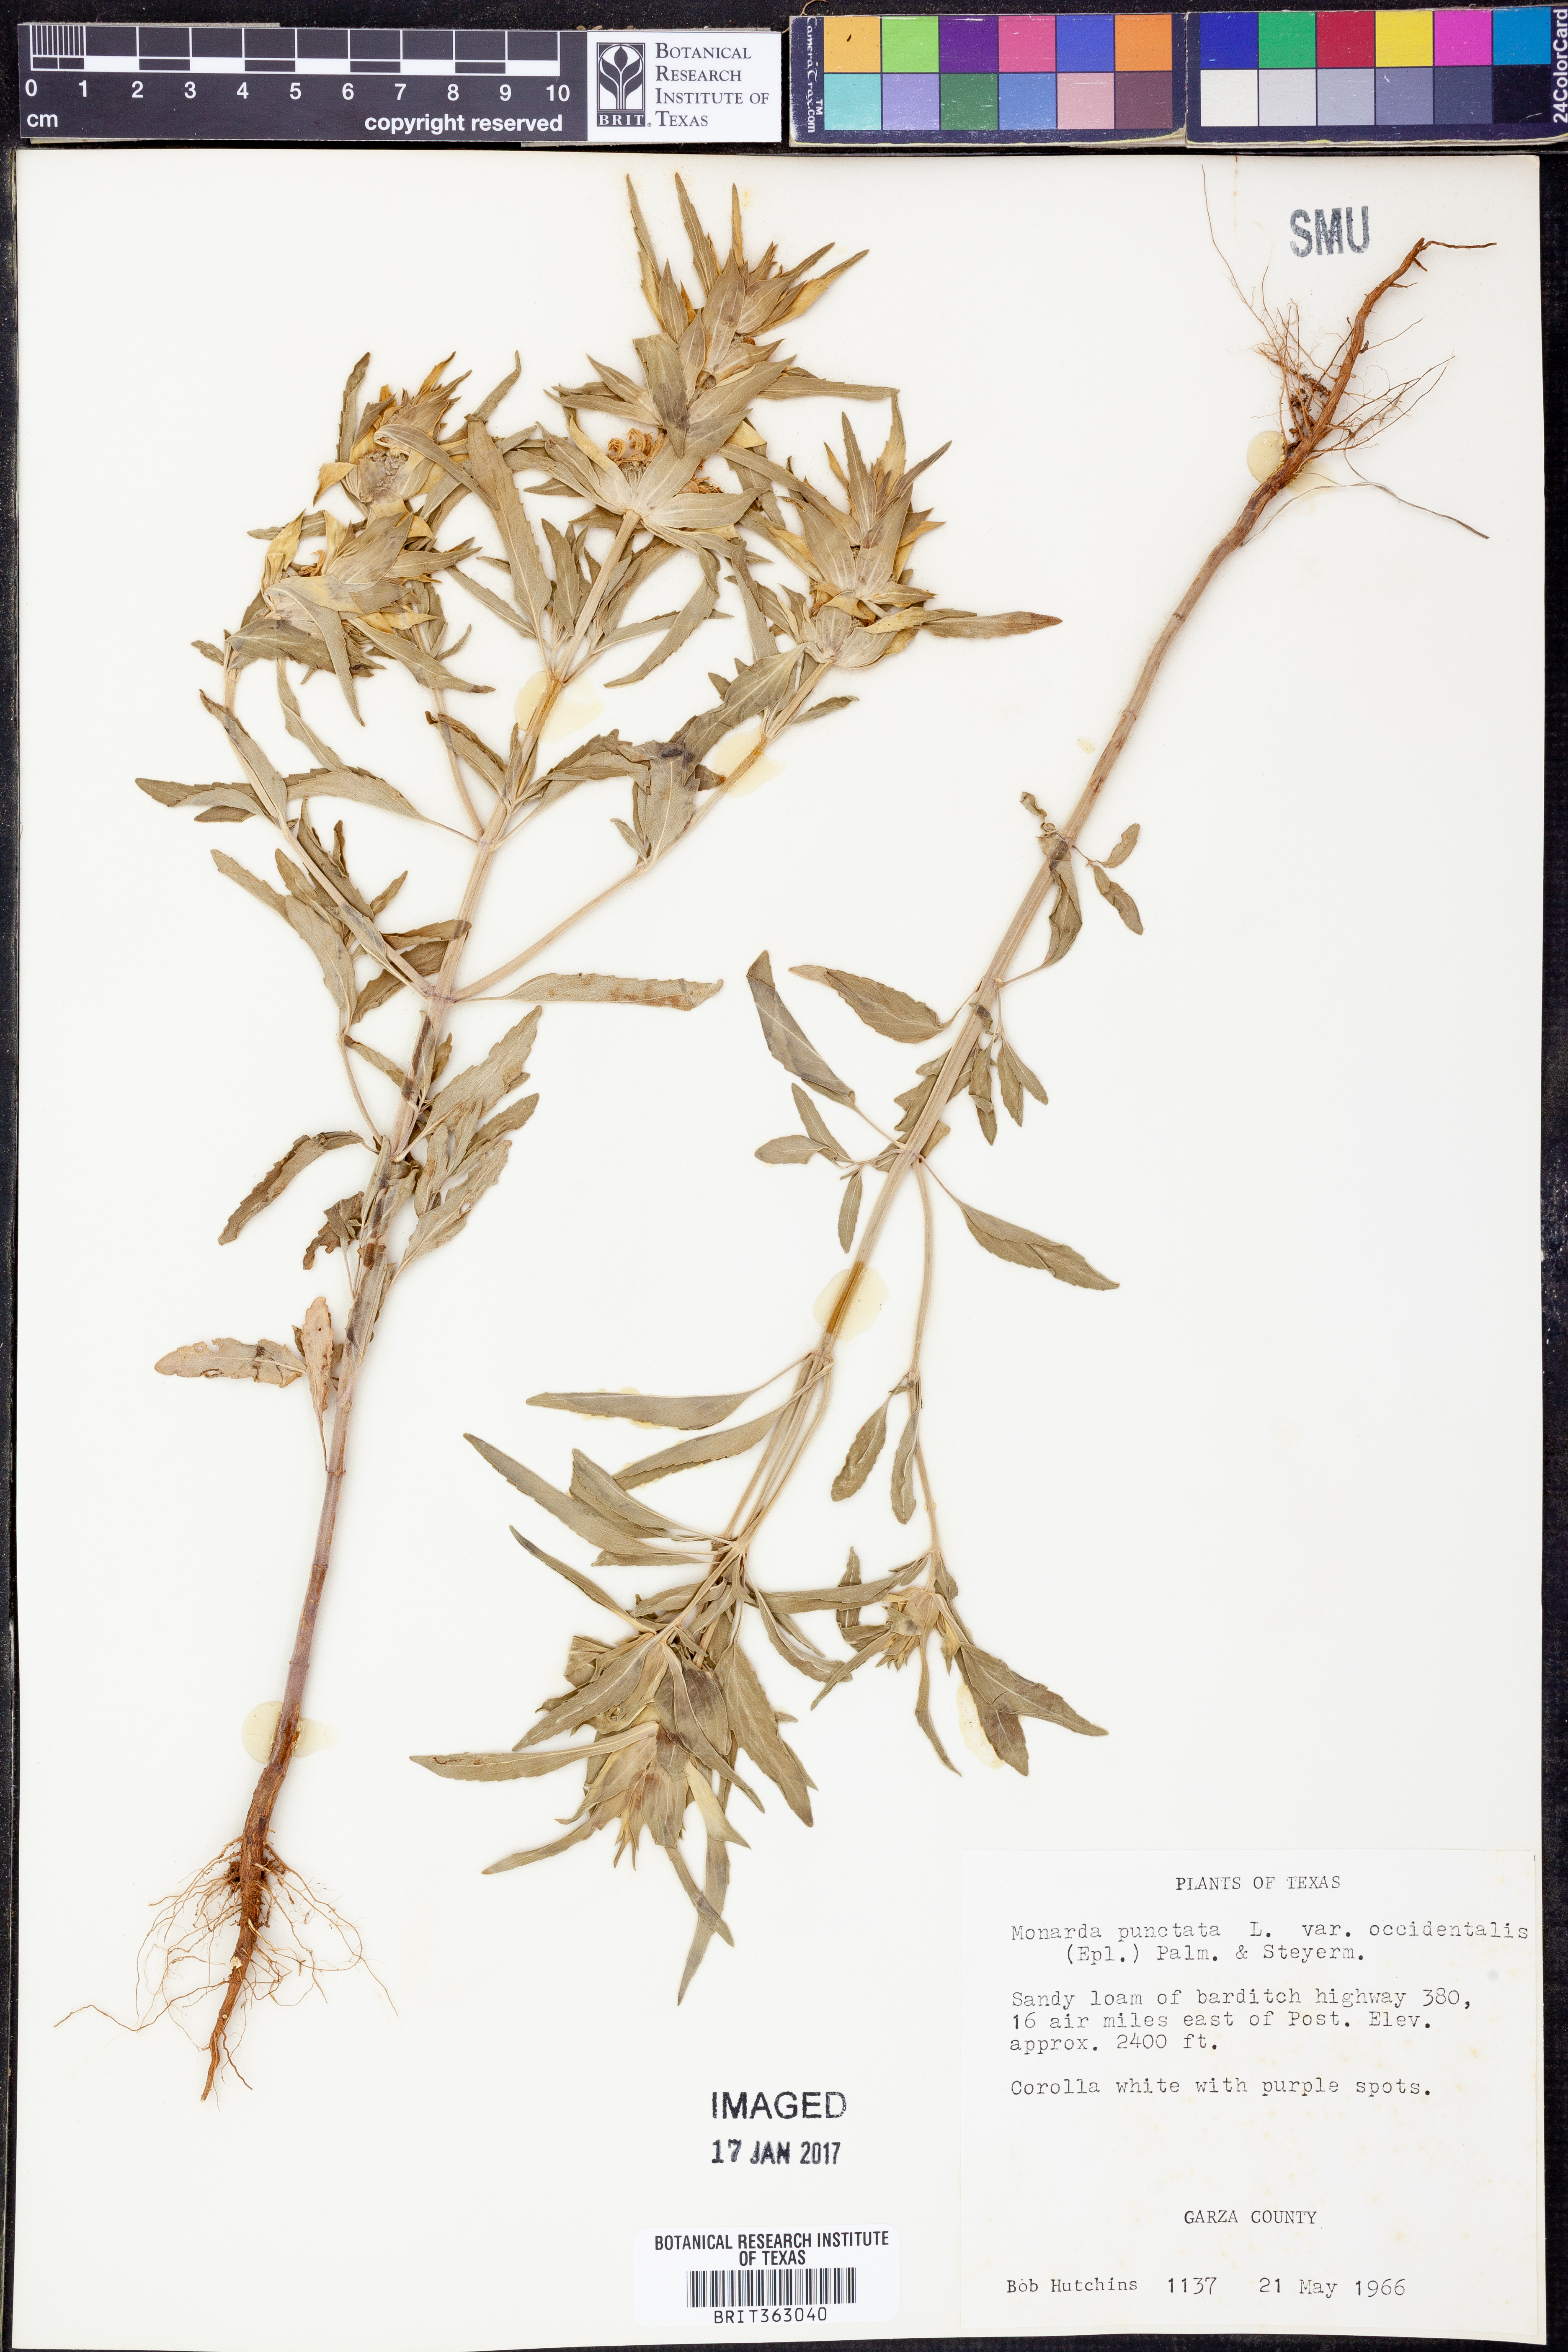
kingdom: Plantae
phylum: Tracheophyta
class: Magnoliopsida
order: Lamiales
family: Lamiaceae
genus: Monarda
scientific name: Monarda punctata
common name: Dotted monarda
